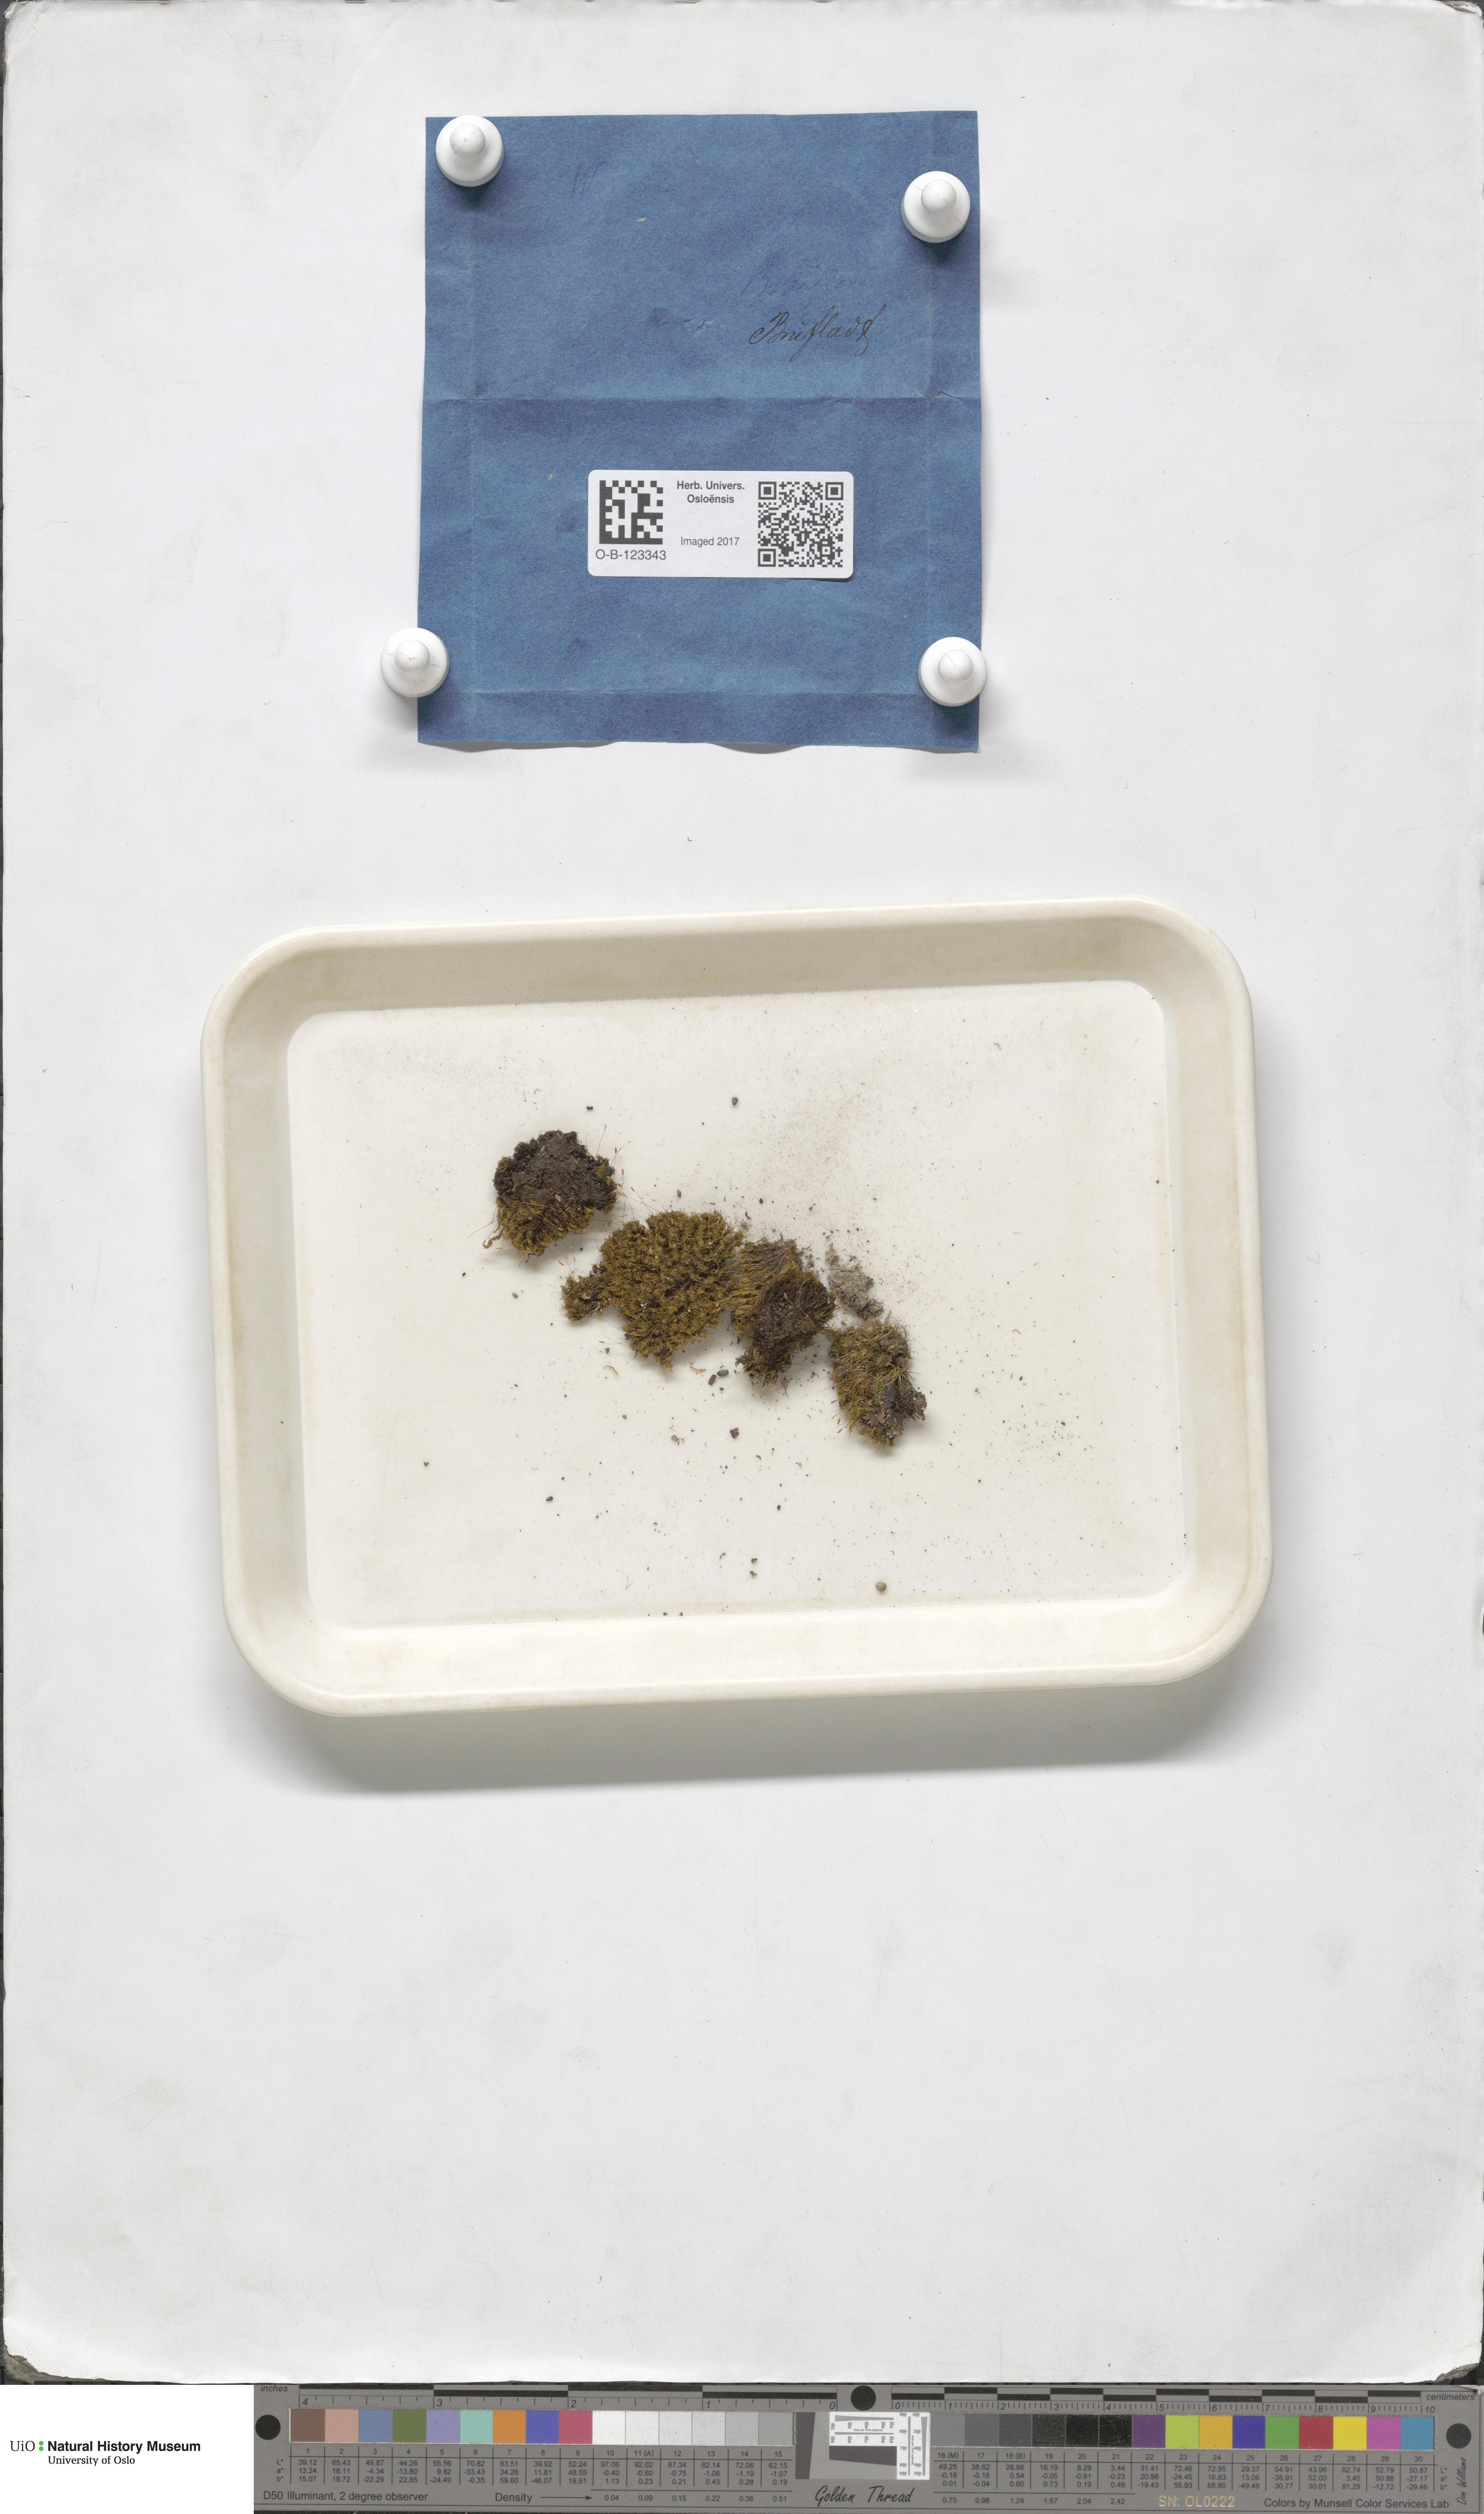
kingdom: Plantae
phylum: Bryophyta
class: Bryopsida
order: Scouleriales
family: Hymenolomataceae
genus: Hymenoloma
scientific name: Hymenoloma crispulum
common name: Mountain pincushion
